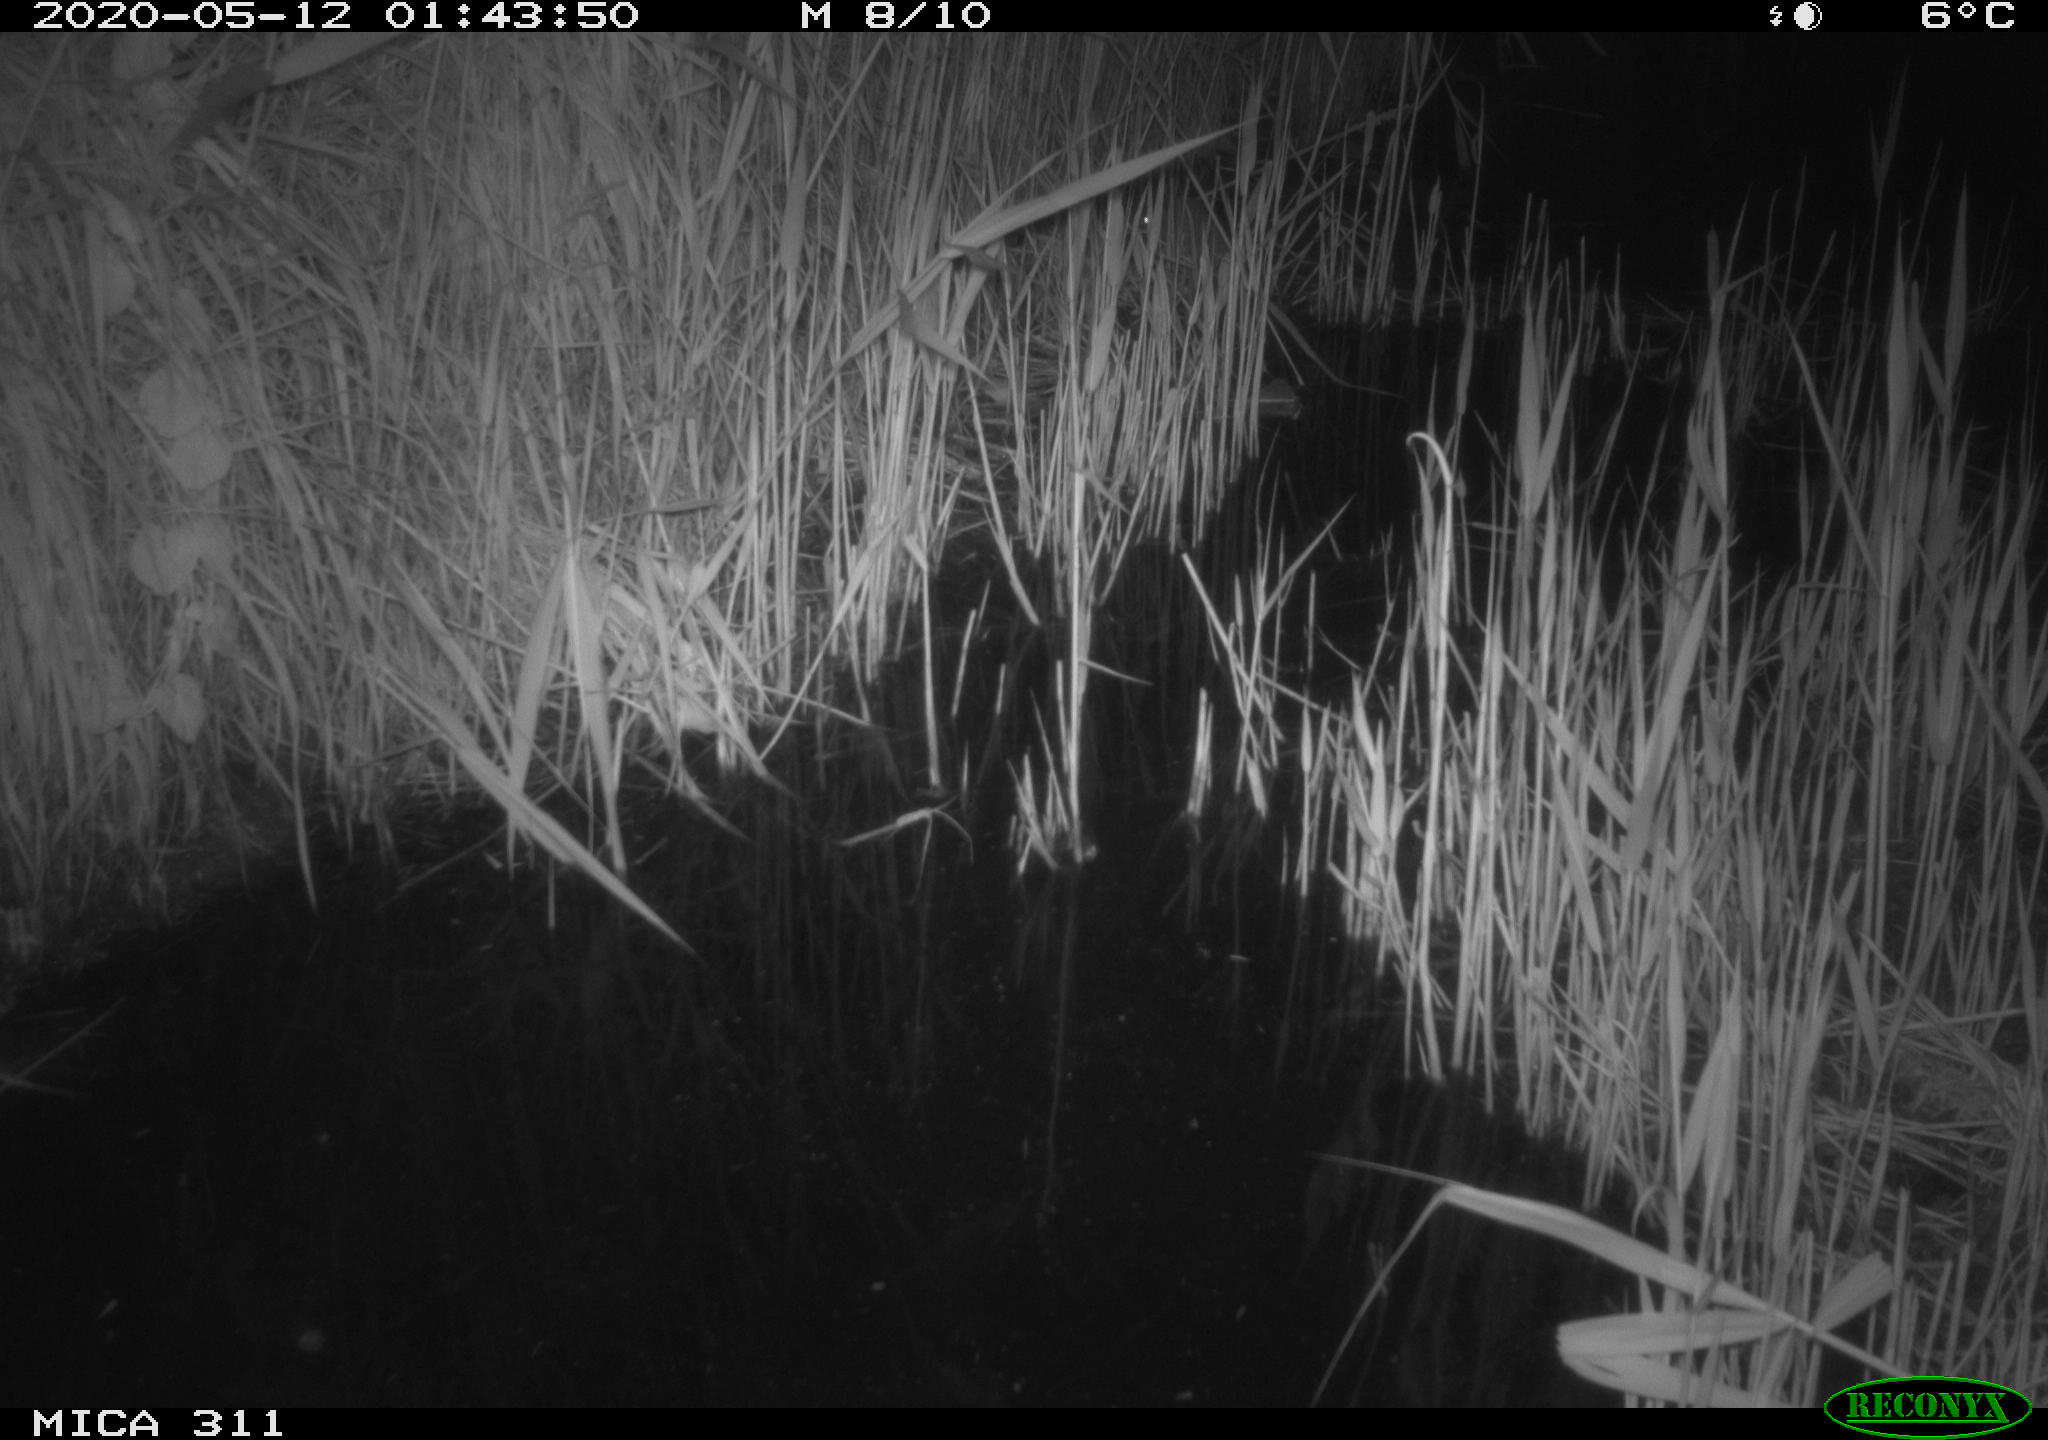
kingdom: Animalia
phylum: Chordata
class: Mammalia
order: Rodentia
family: Muridae
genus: Rattus
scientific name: Rattus norvegicus
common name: Brown rat
